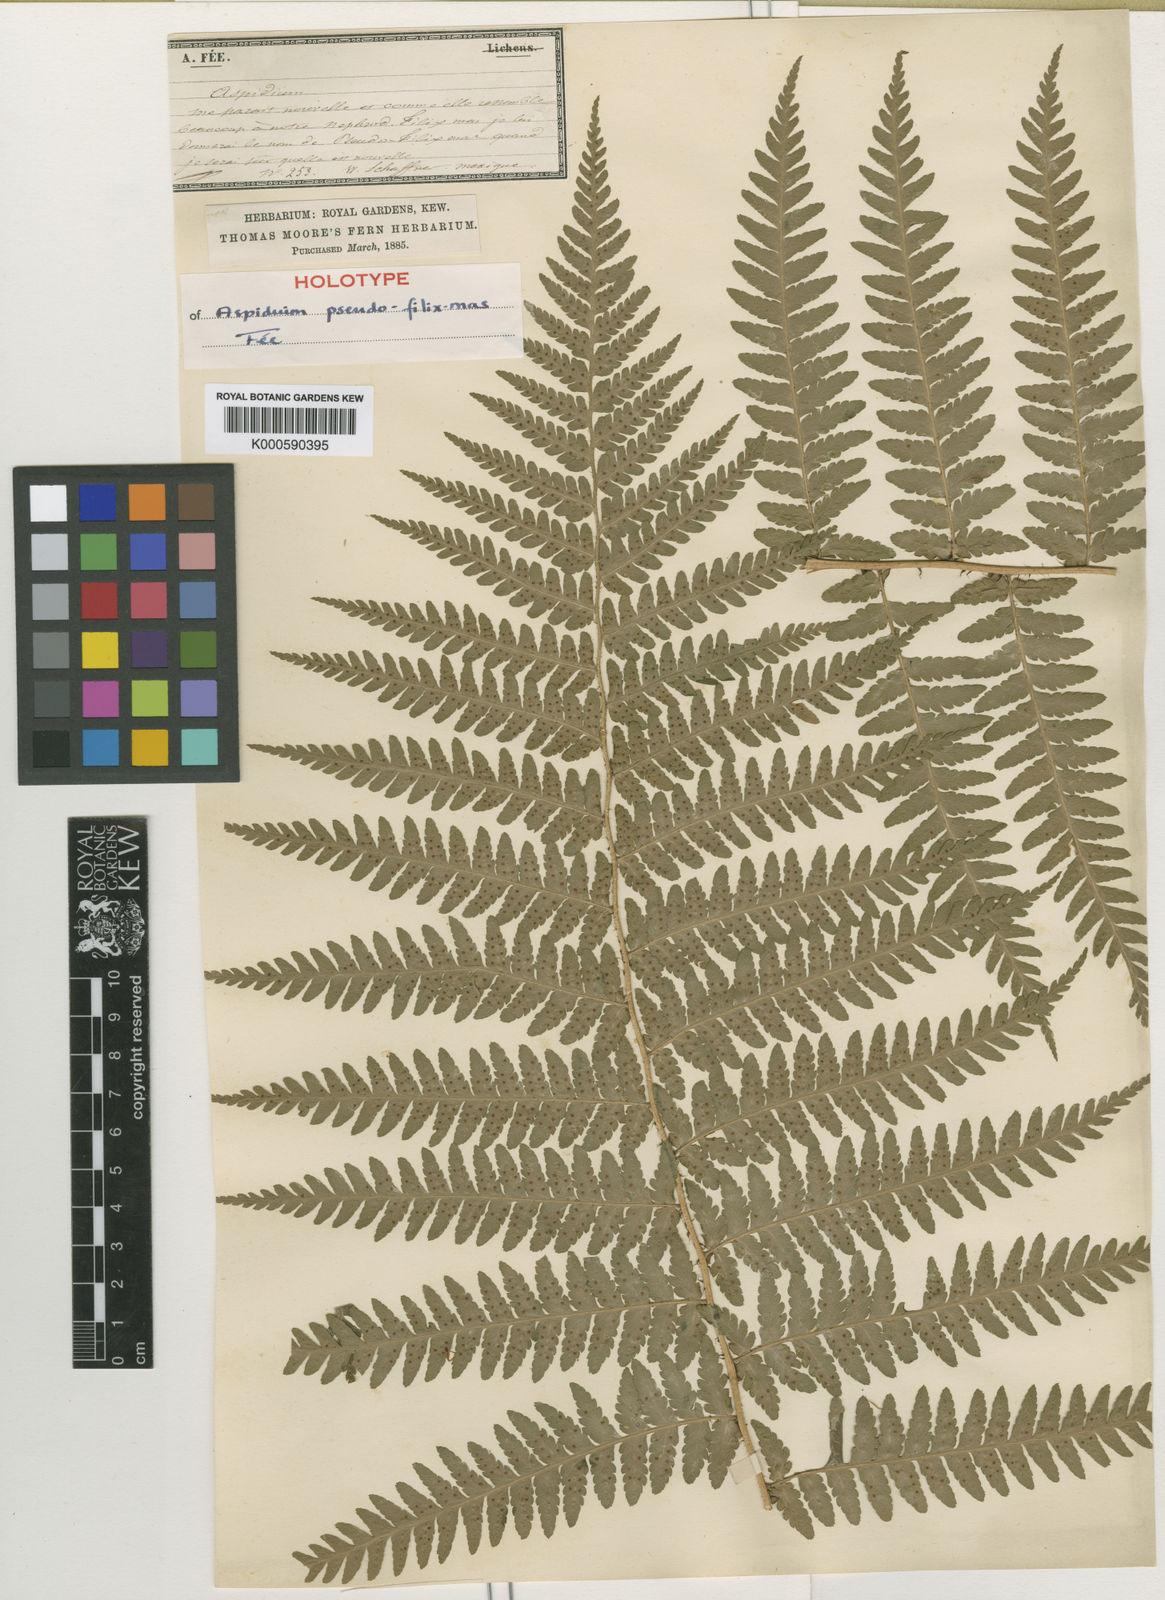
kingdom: Plantae
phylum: Tracheophyta
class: Polypodiopsida
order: Polypodiales
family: Dryopteridaceae
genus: Dryopteris
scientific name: Dryopteris
